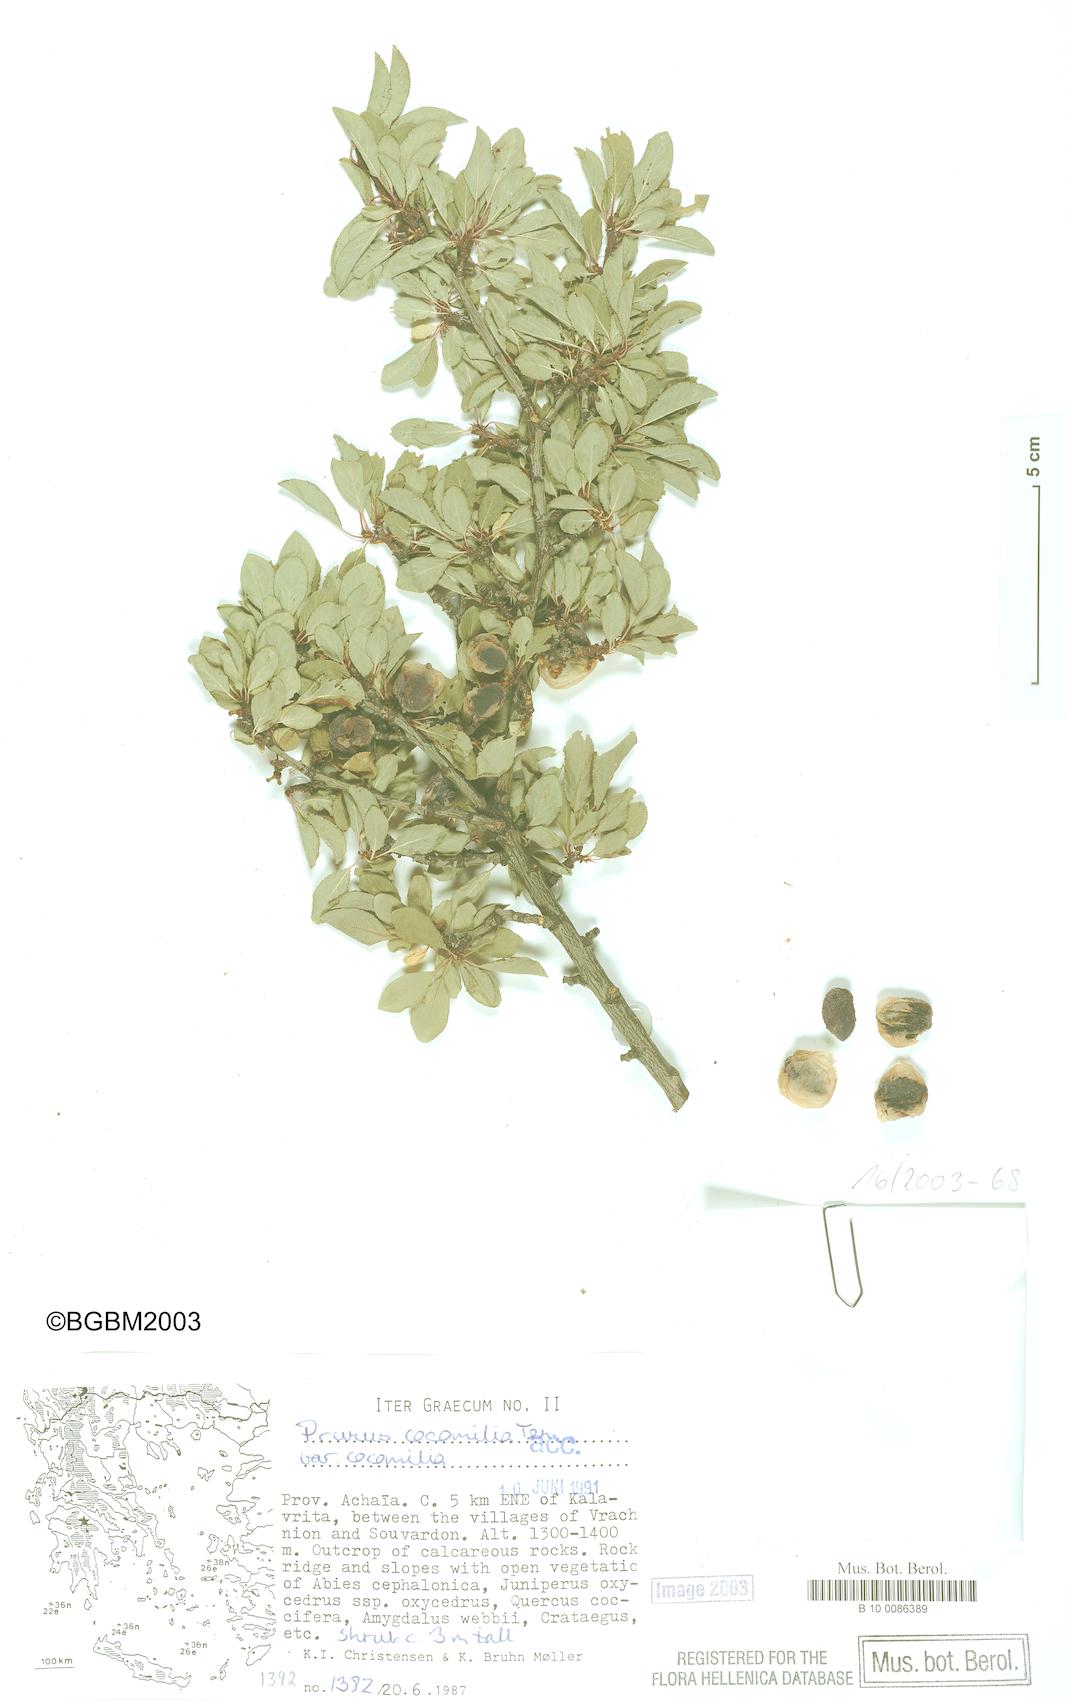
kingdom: Plantae
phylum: Tracheophyta
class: Magnoliopsida
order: Rosales
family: Rosaceae
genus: Prunus
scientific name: Prunus cocomilia
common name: Italian plum
